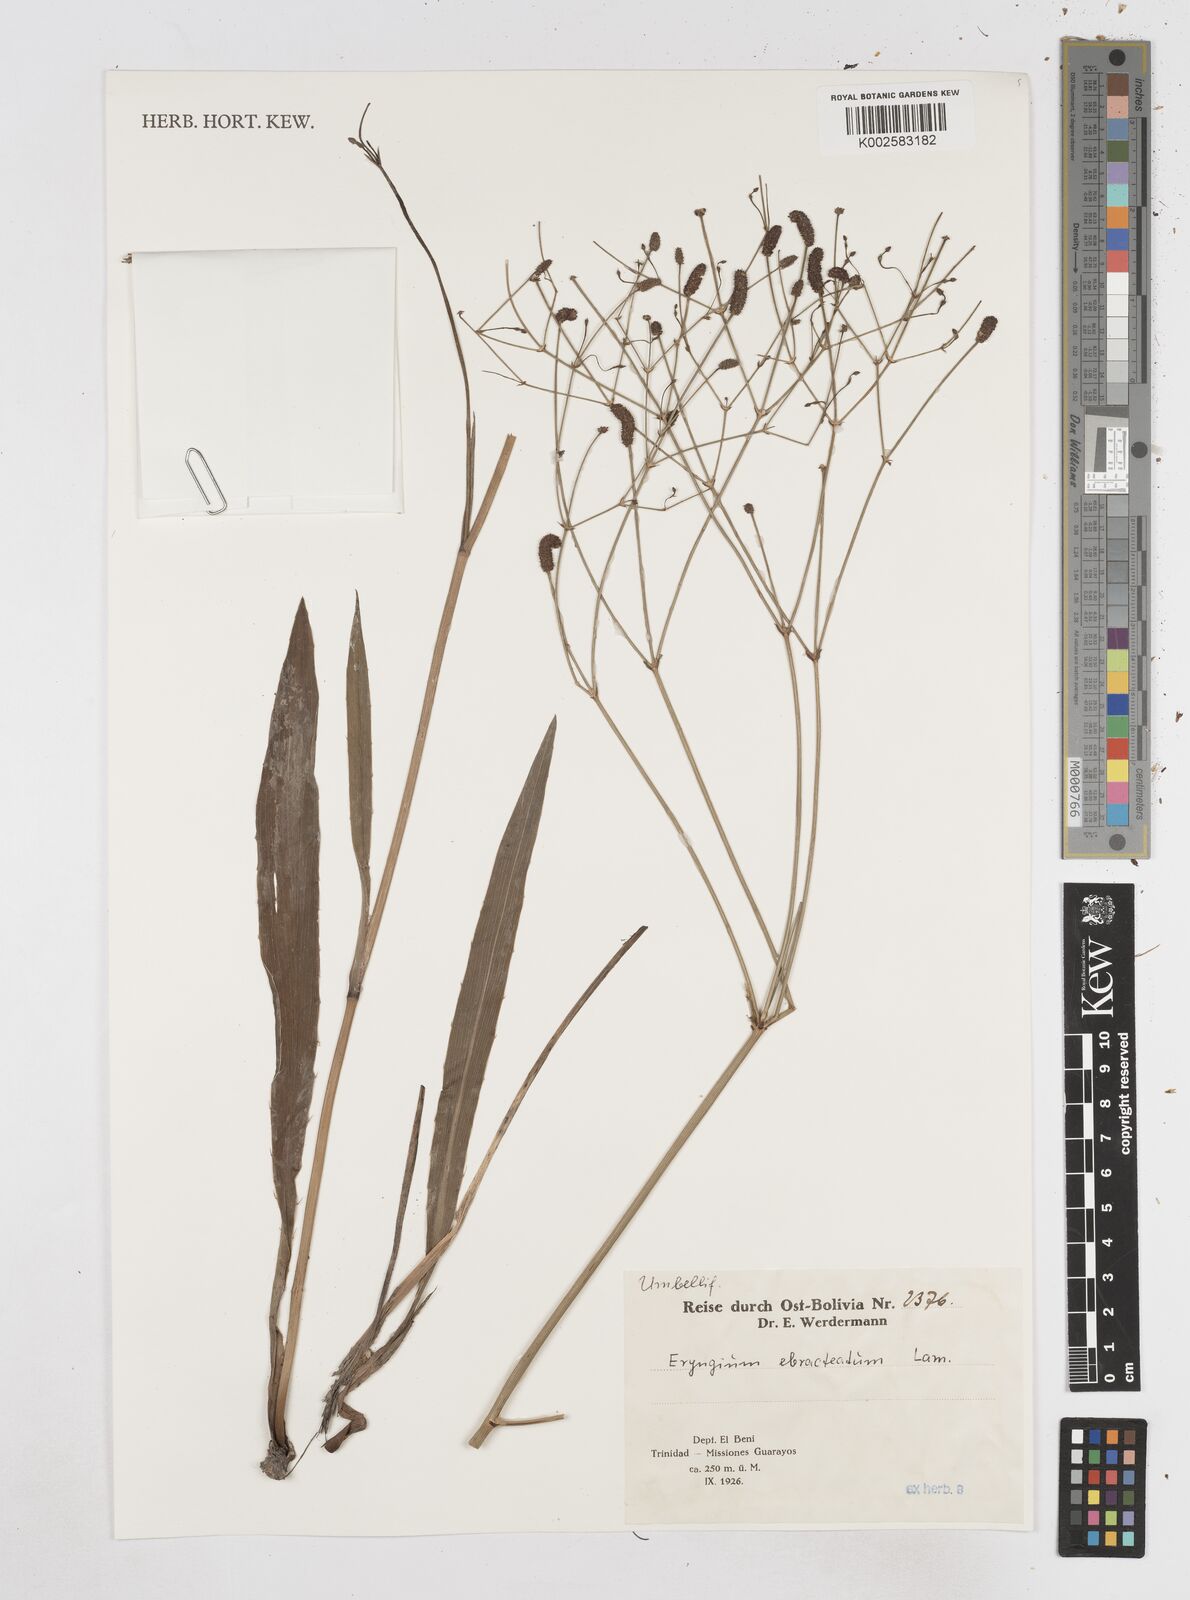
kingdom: Plantae
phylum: Tracheophyta
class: Magnoliopsida
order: Apiales
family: Apiaceae
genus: Eryngium
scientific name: Eryngium ebracteatum
